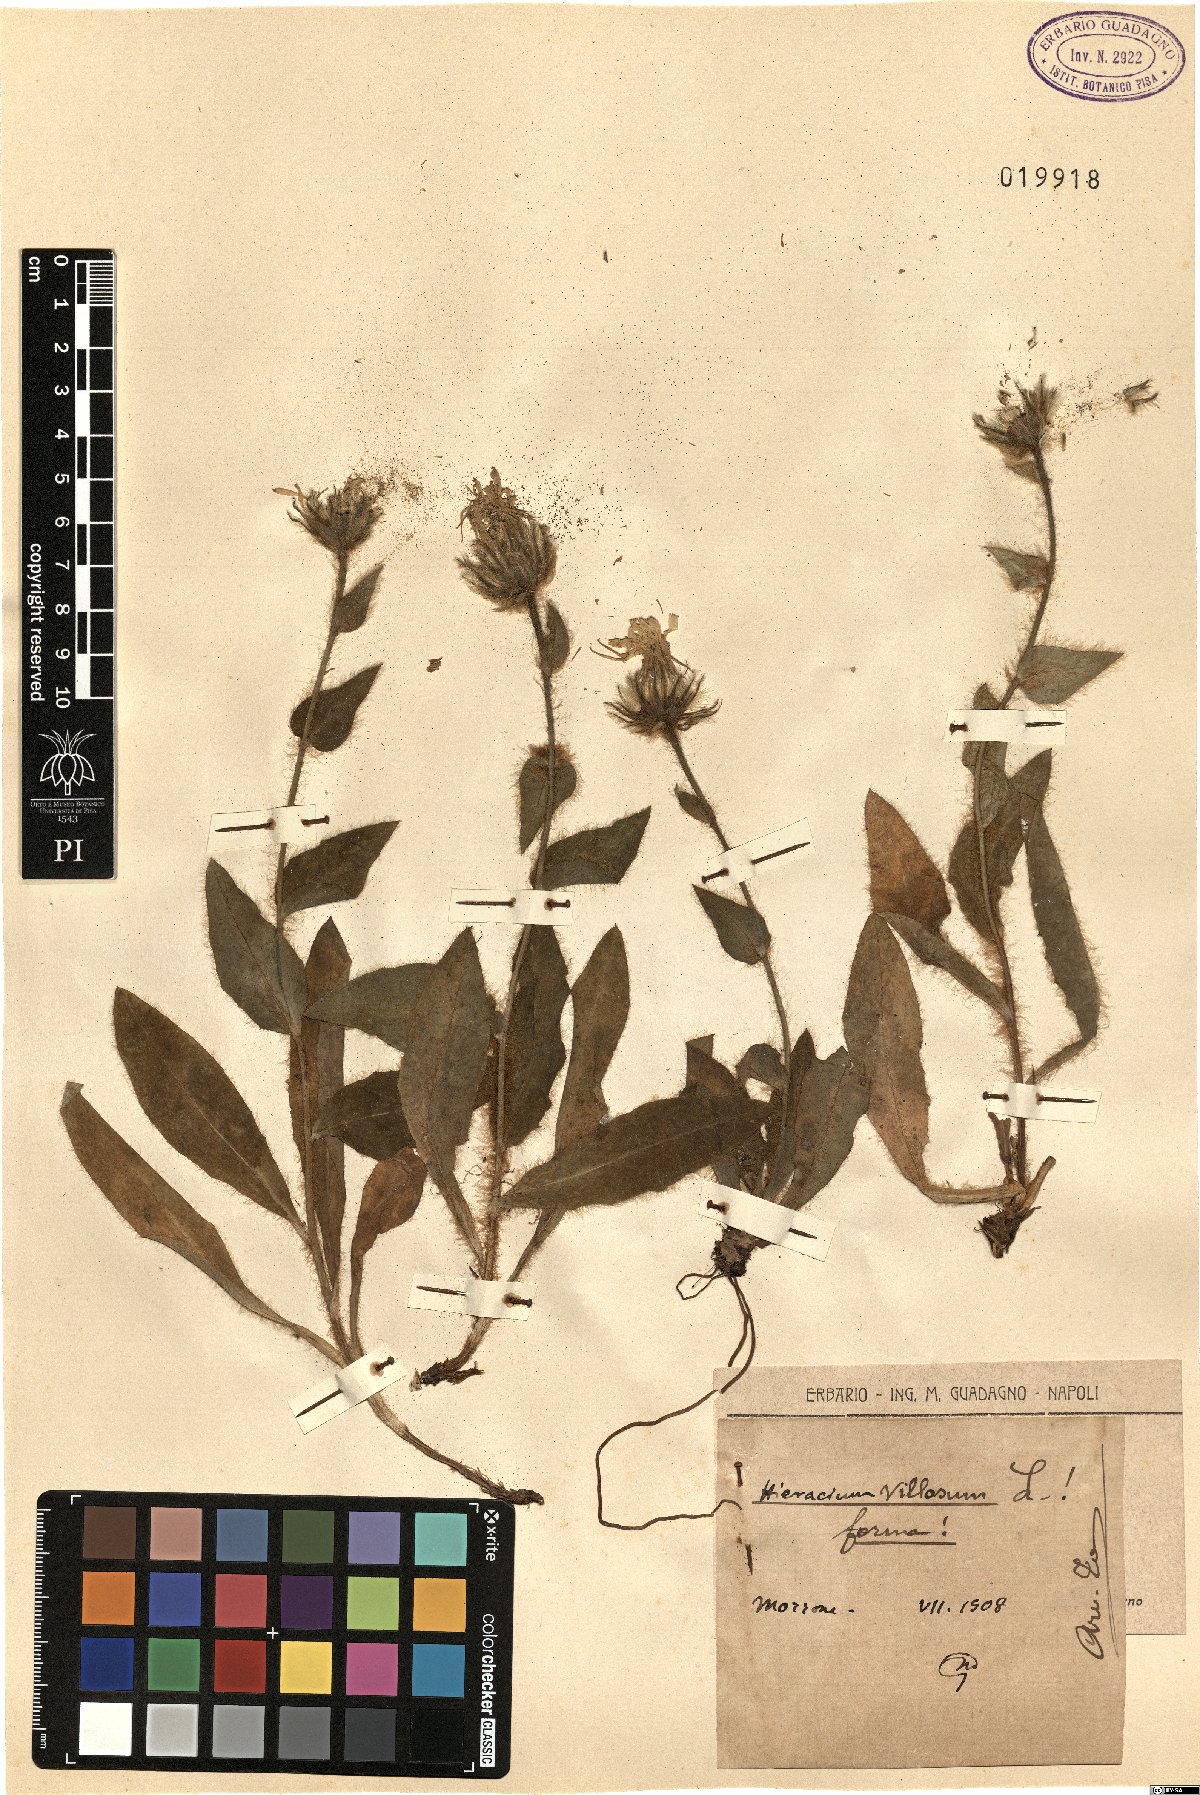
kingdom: Plantae
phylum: Tracheophyta
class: Magnoliopsida
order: Asterales
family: Asteraceae
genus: Hieracium
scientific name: Hieracium villosum
